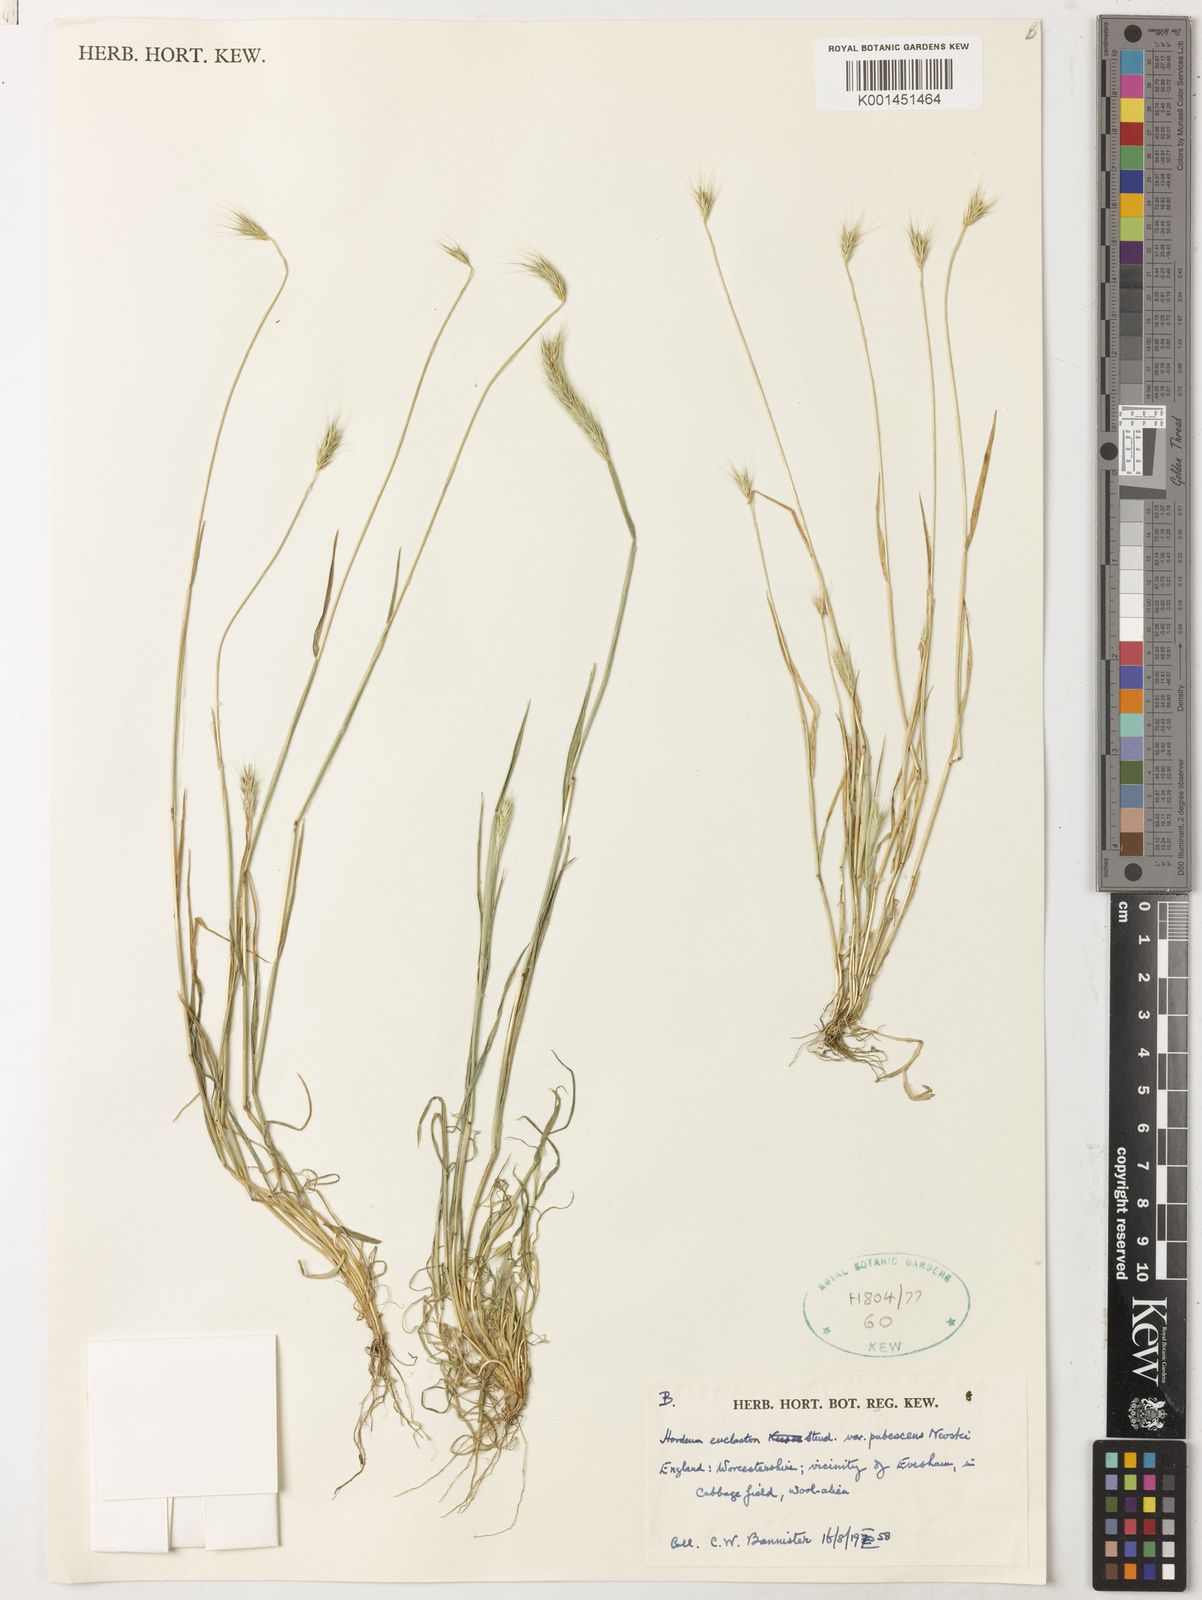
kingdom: Plantae
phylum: Tracheophyta
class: Liliopsida
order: Poales
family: Poaceae
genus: Hordeum
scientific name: Hordeum euclaston
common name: Argentine barley
